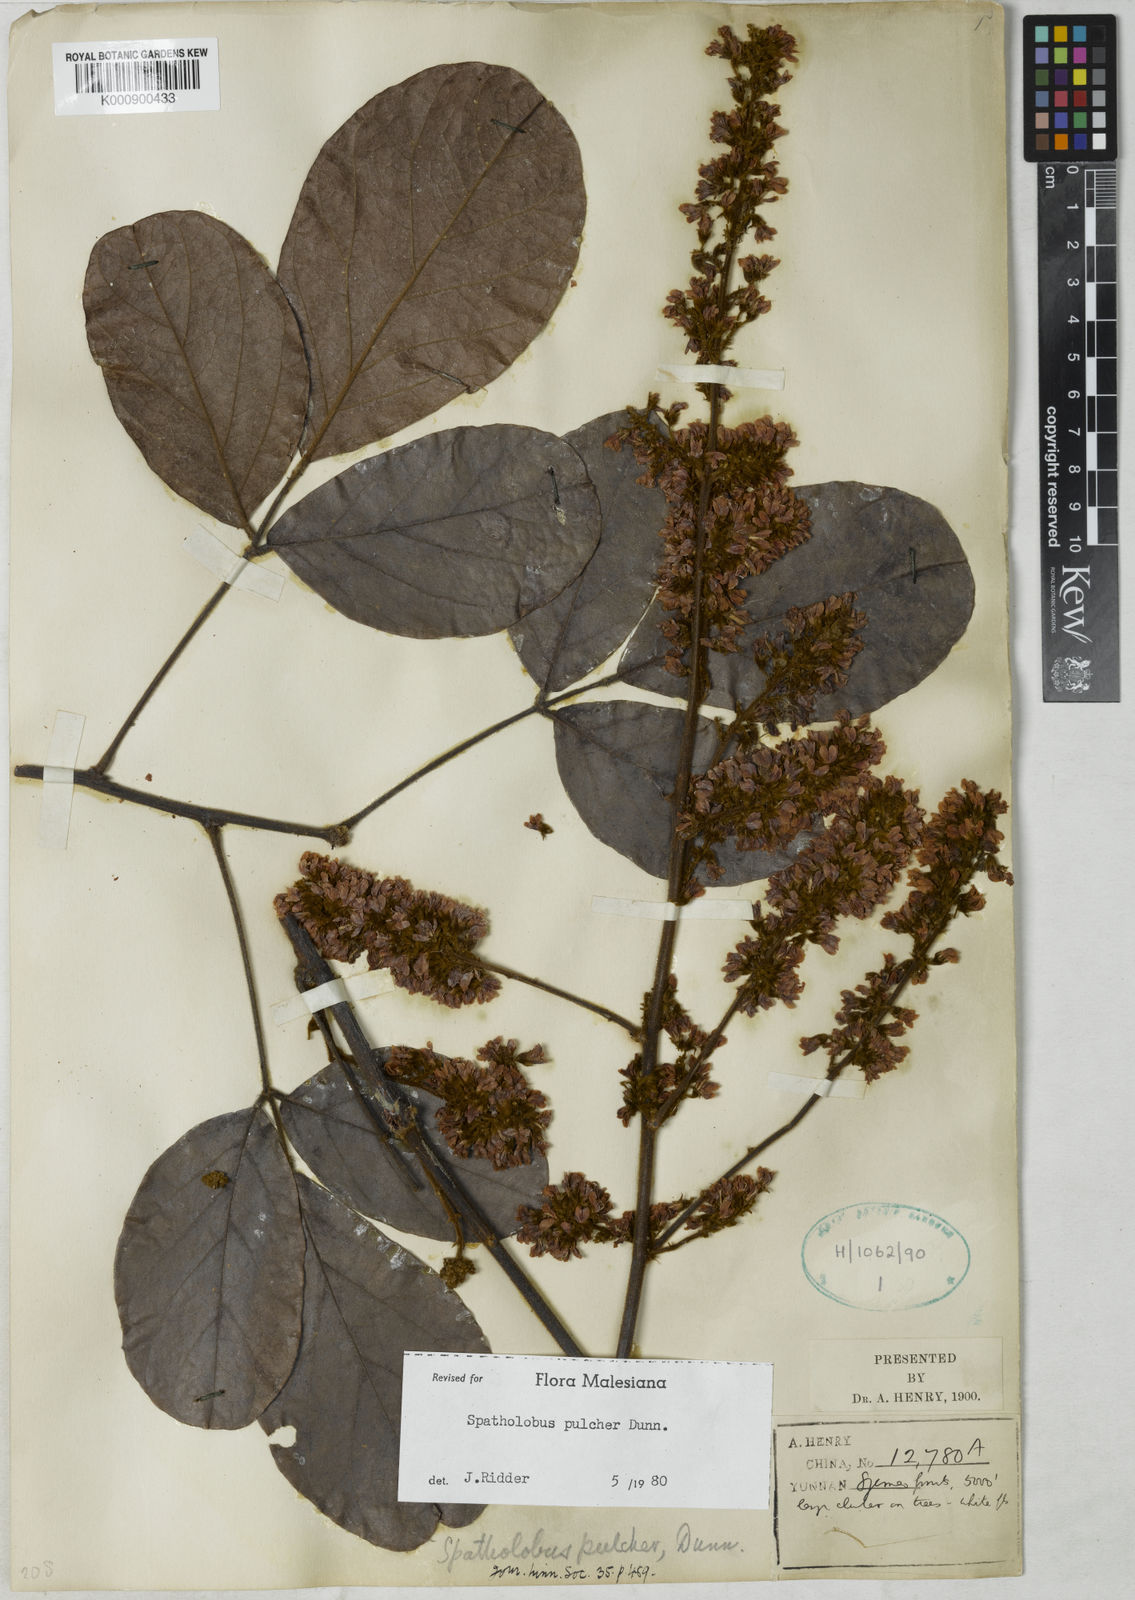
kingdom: Plantae
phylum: Tracheophyta
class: Magnoliopsida
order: Fabales
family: Fabaceae
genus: Spatholobus
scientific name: Spatholobus pulcher
